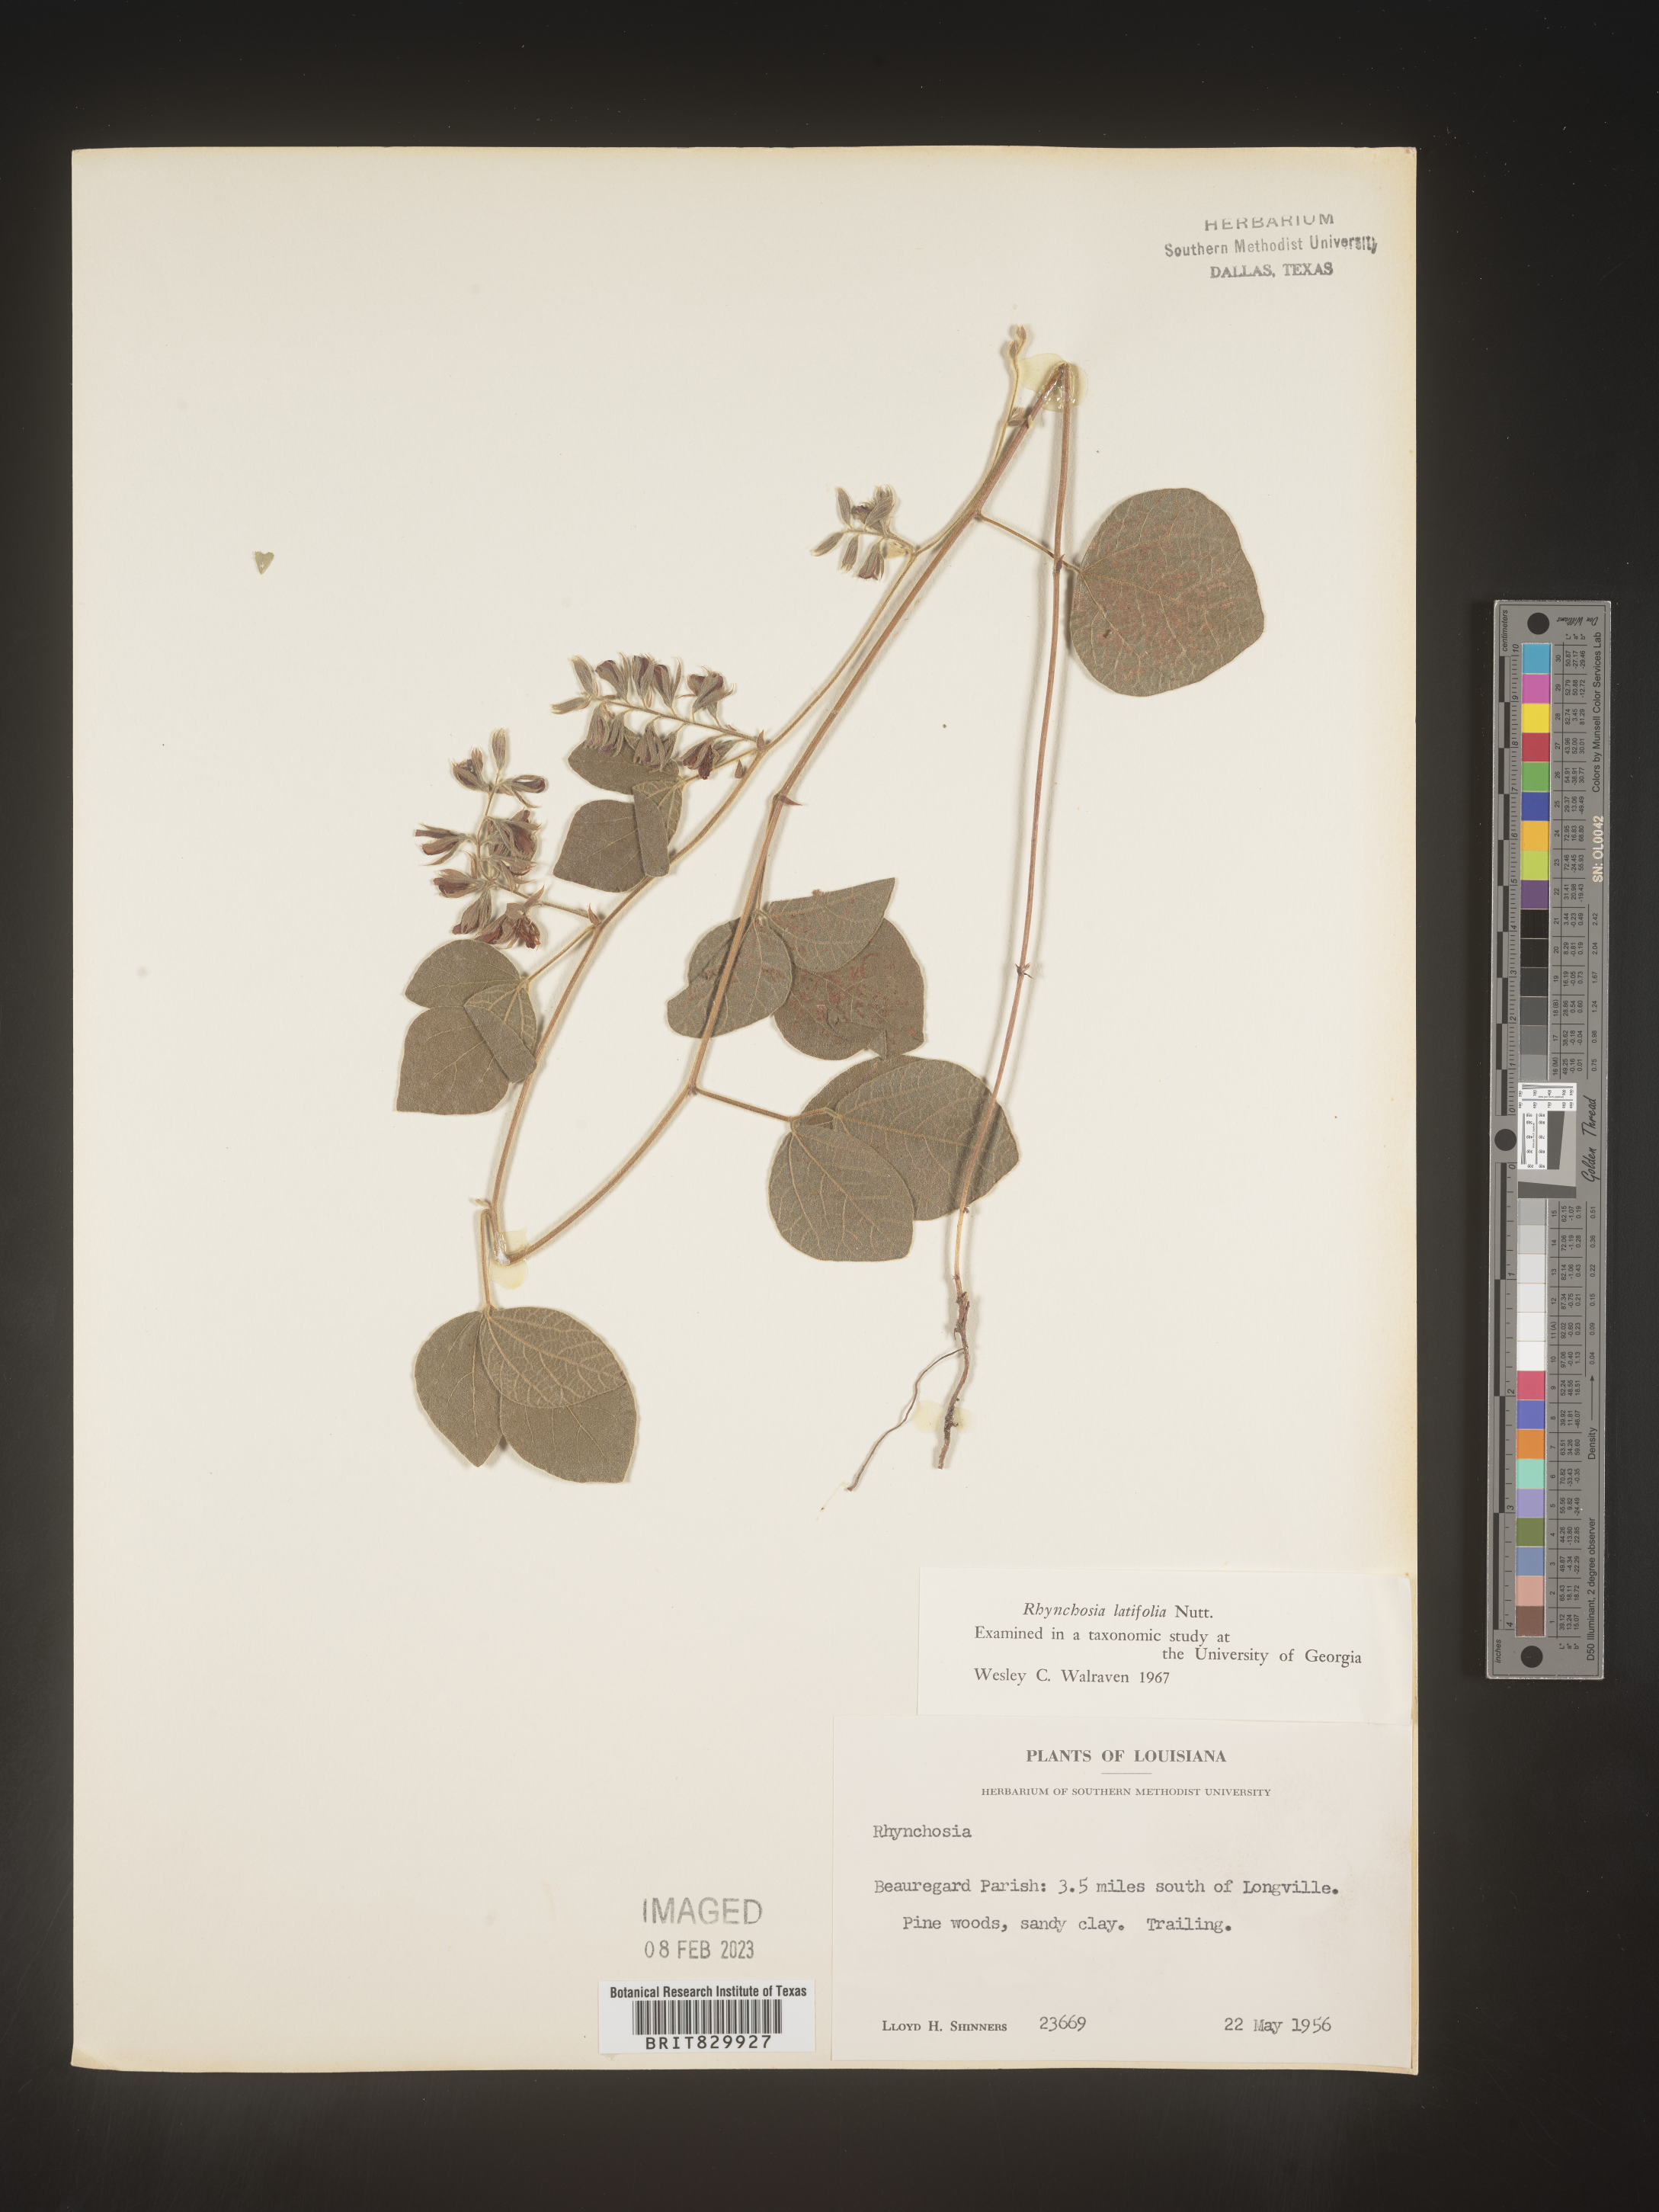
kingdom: Plantae
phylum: Tracheophyta
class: Magnoliopsida
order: Fabales
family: Fabaceae
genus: Rhynchosia
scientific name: Rhynchosia latifolia
